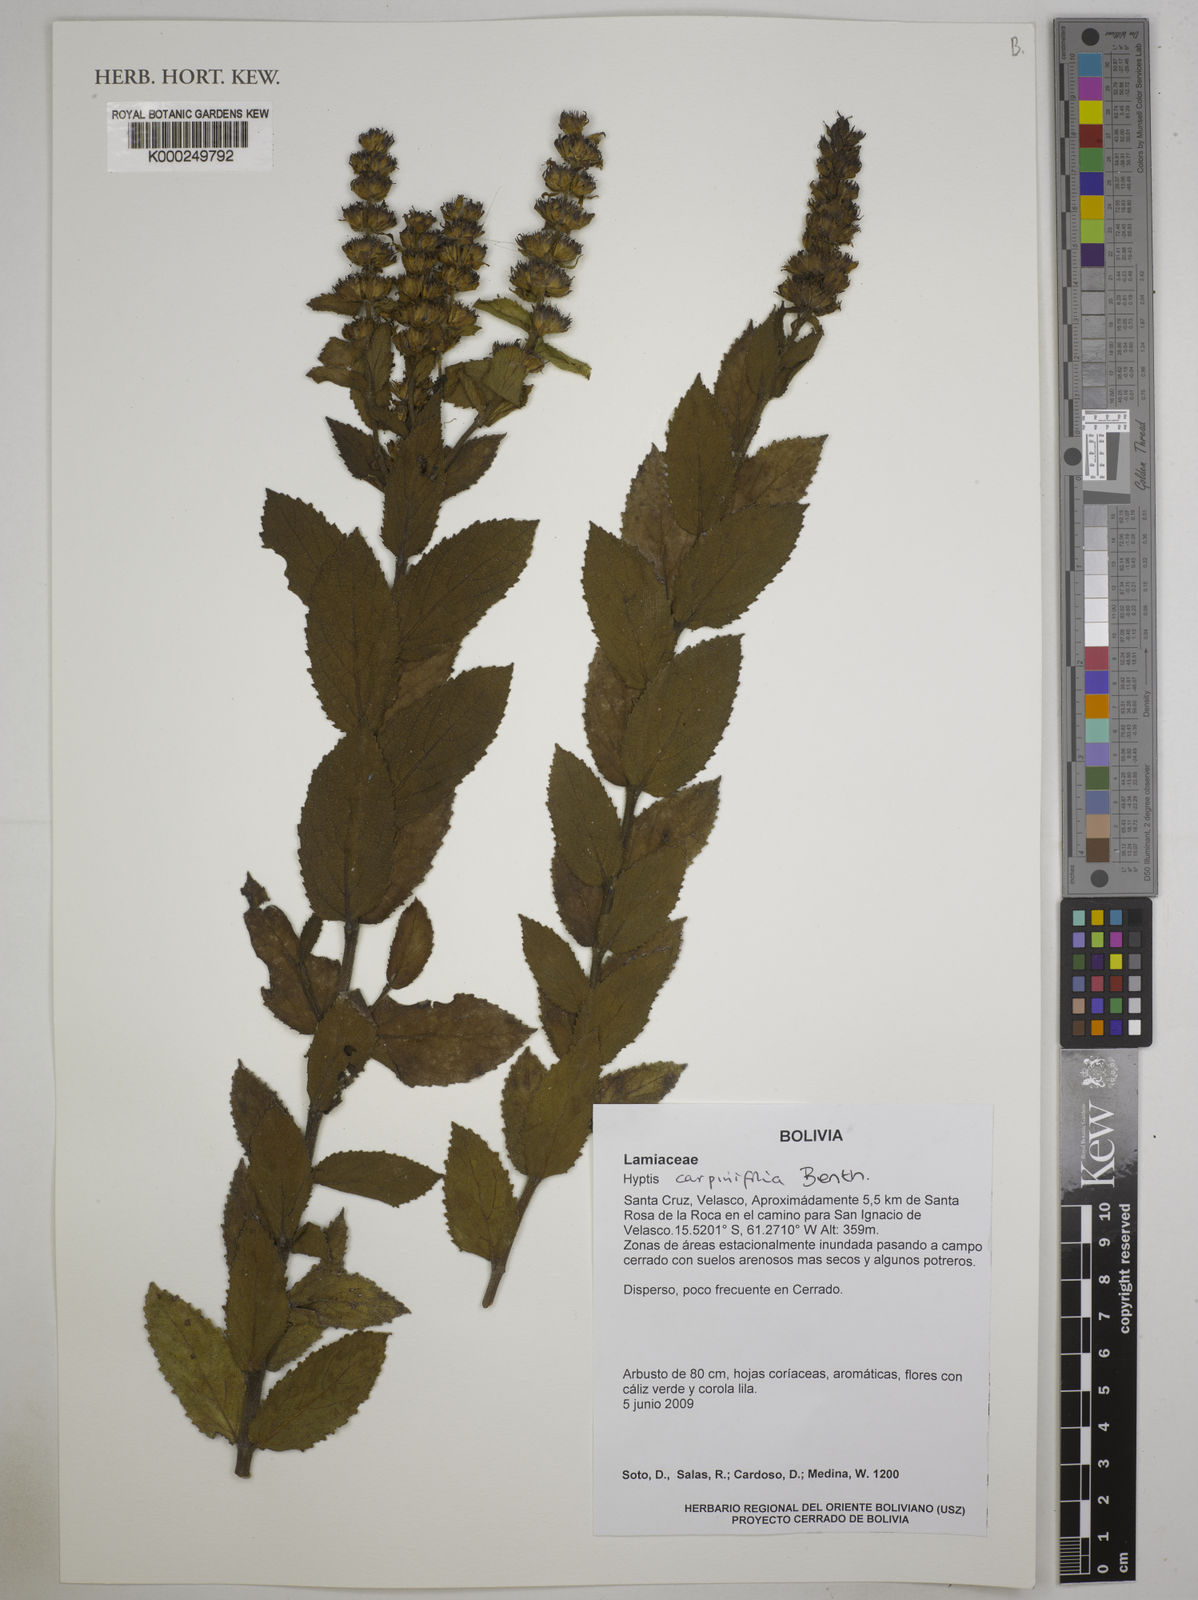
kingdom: Plantae
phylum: Tracheophyta
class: Magnoliopsida
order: Lamiales
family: Lamiaceae
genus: Cantinoa
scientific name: Cantinoa carpinifolia
